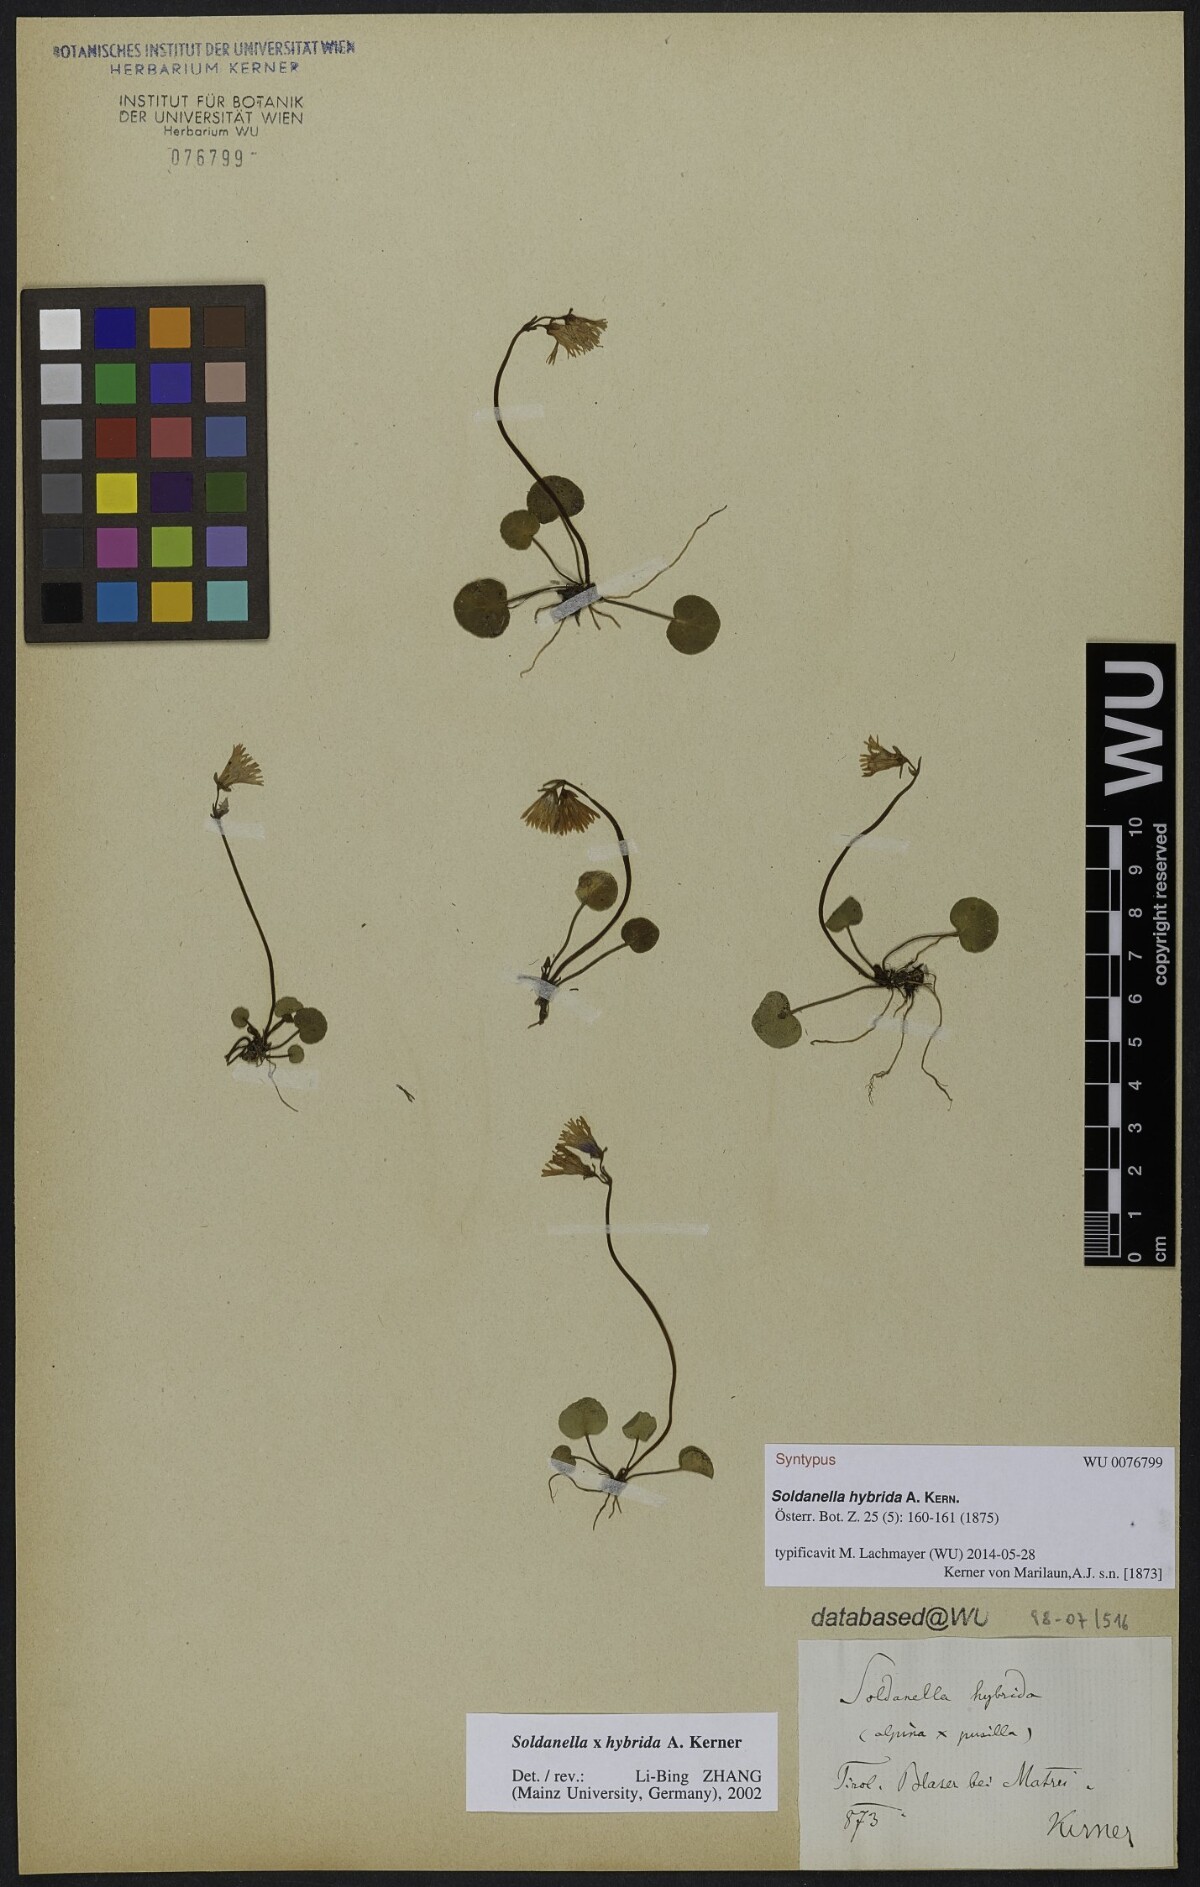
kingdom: Plantae
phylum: Tracheophyta
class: Magnoliopsida
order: Ericales
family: Primulaceae
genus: Soldanella
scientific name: Soldanella hybrida
